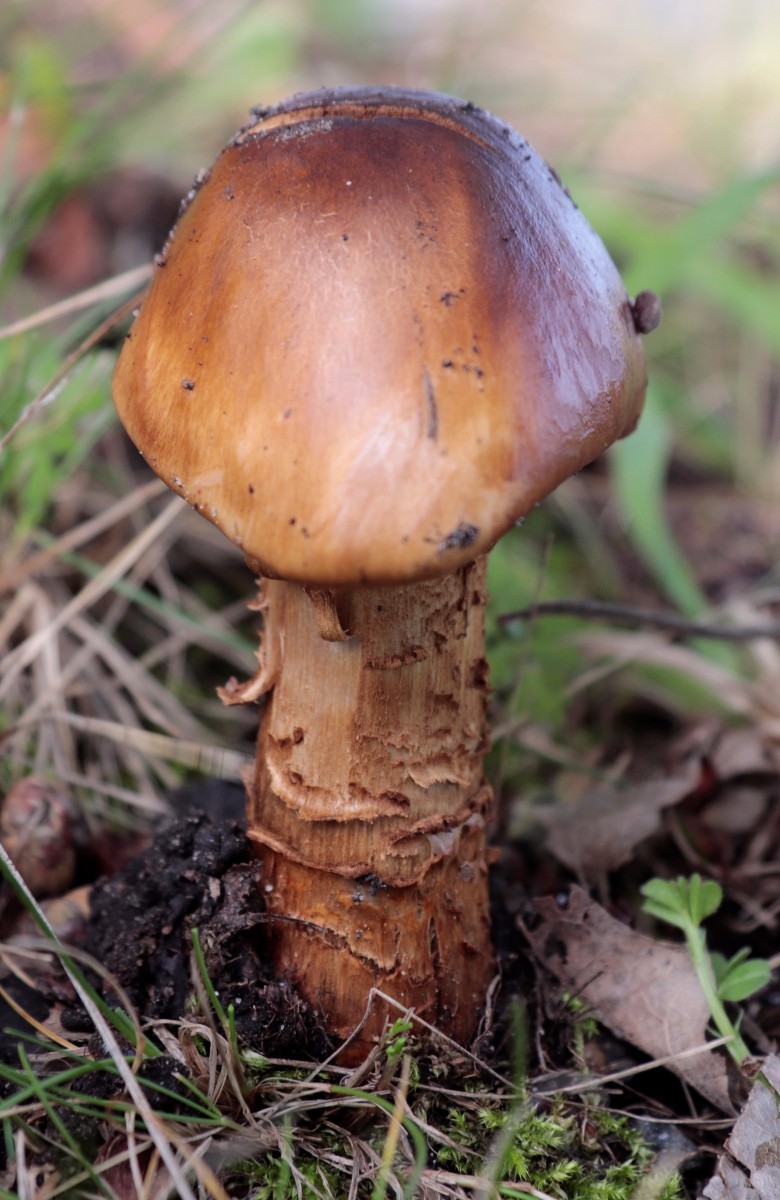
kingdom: Fungi
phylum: Basidiomycota
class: Agaricomycetes
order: Agaricales
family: Cortinariaceae
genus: Cortinarius
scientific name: Cortinarius trivialis
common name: brunslimet slørhat
